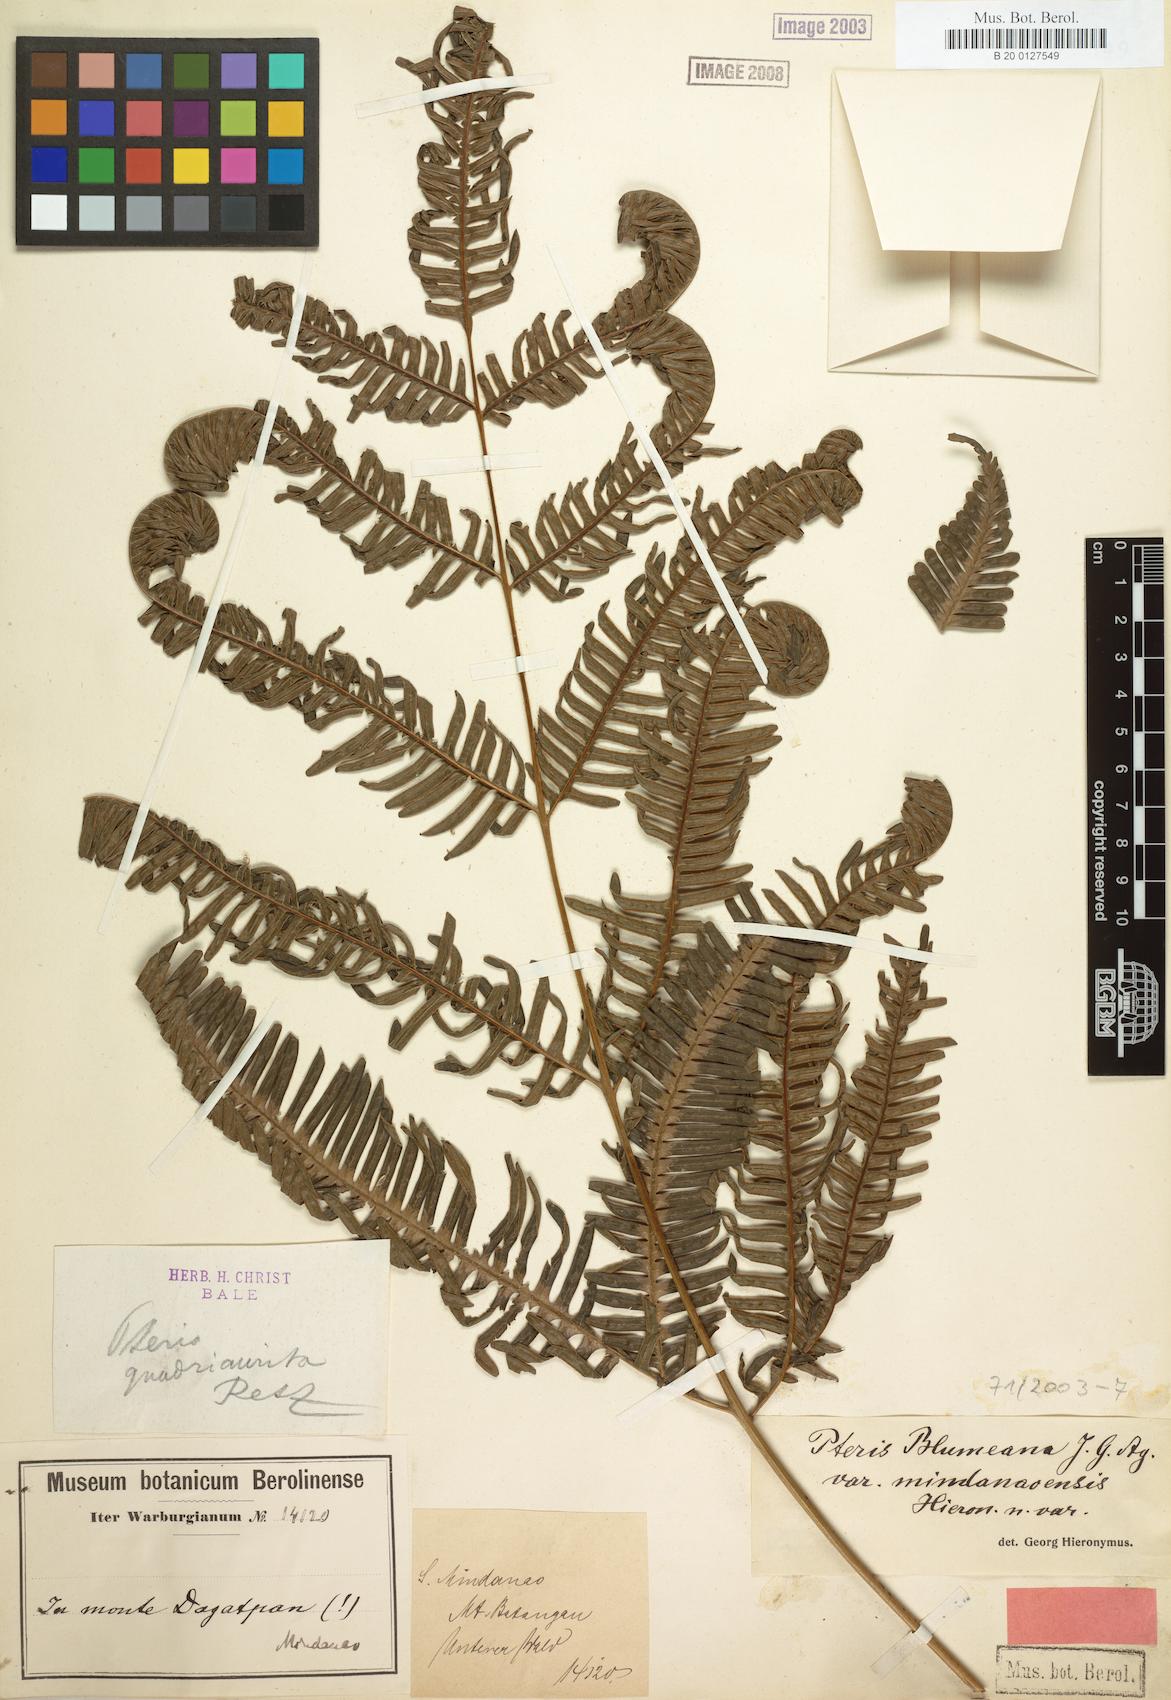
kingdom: Plantae
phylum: Tracheophyta
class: Polypodiopsida
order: Polypodiales
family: Pteridaceae
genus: Pteris
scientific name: Pteris blumeana
